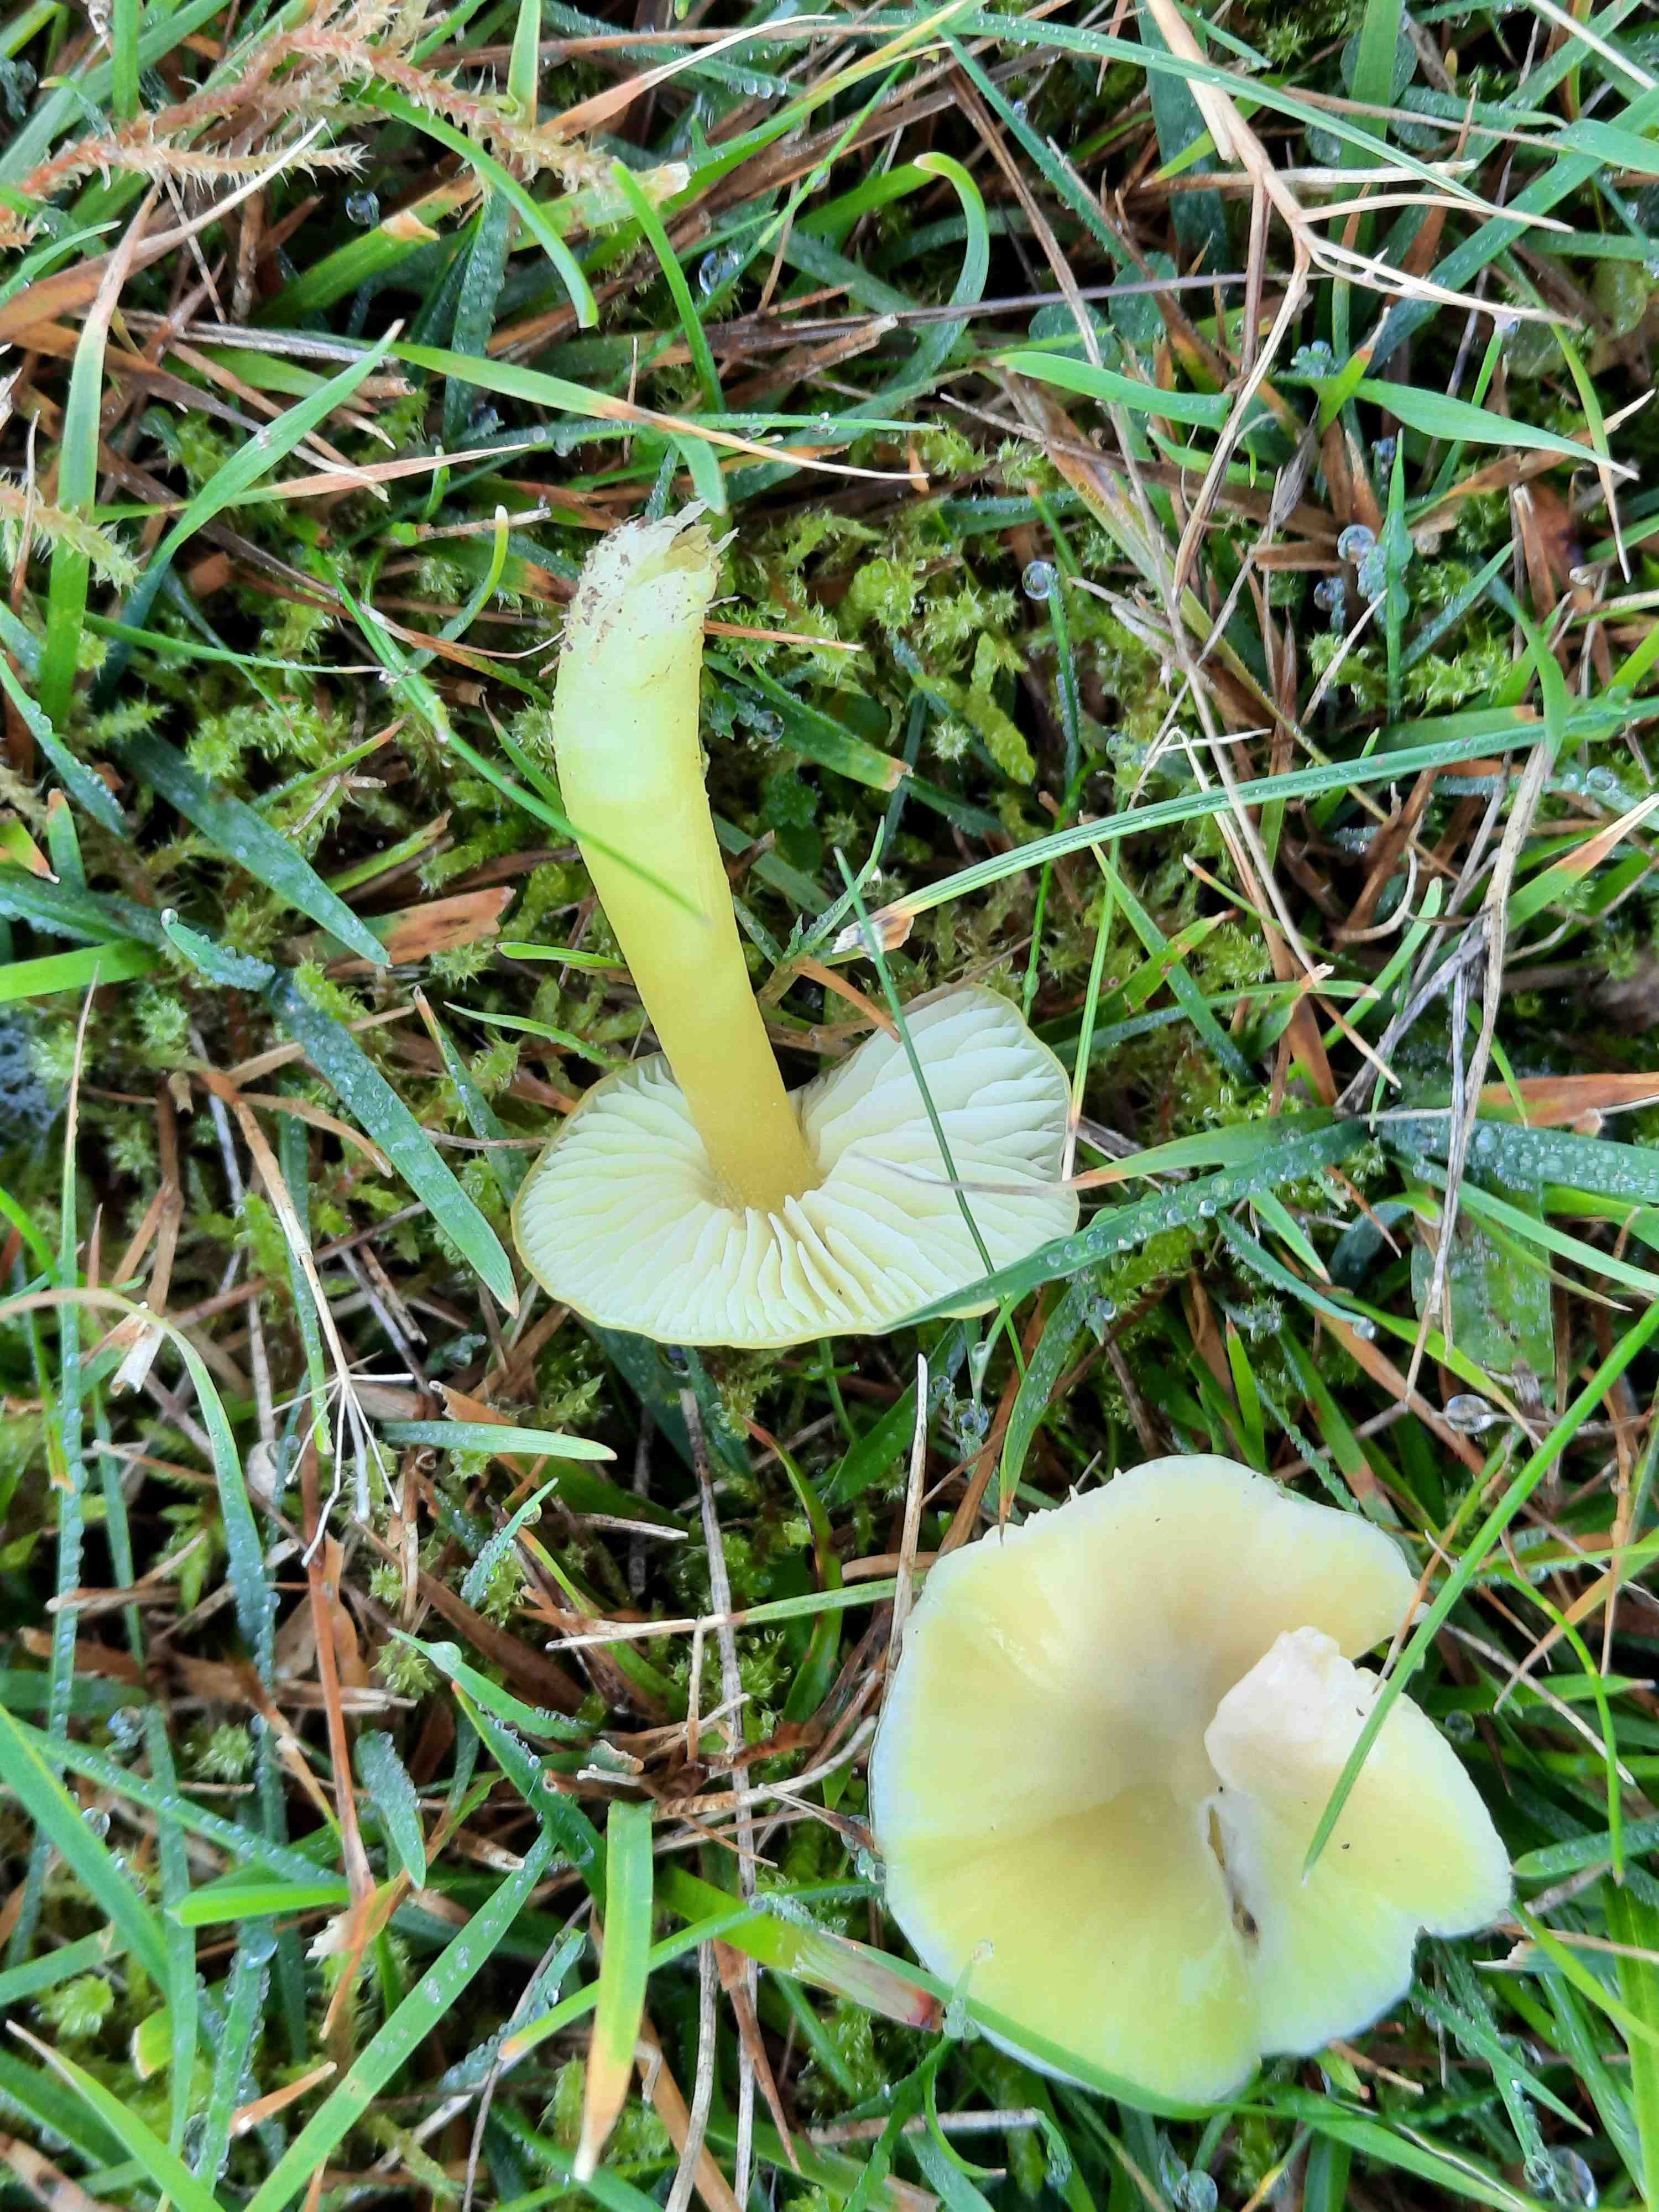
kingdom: Fungi
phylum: Basidiomycota
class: Agaricomycetes
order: Agaricales
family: Hygrophoraceae
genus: Hygrocybe
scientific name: Hygrocybe chlorophana
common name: gul vokshat
